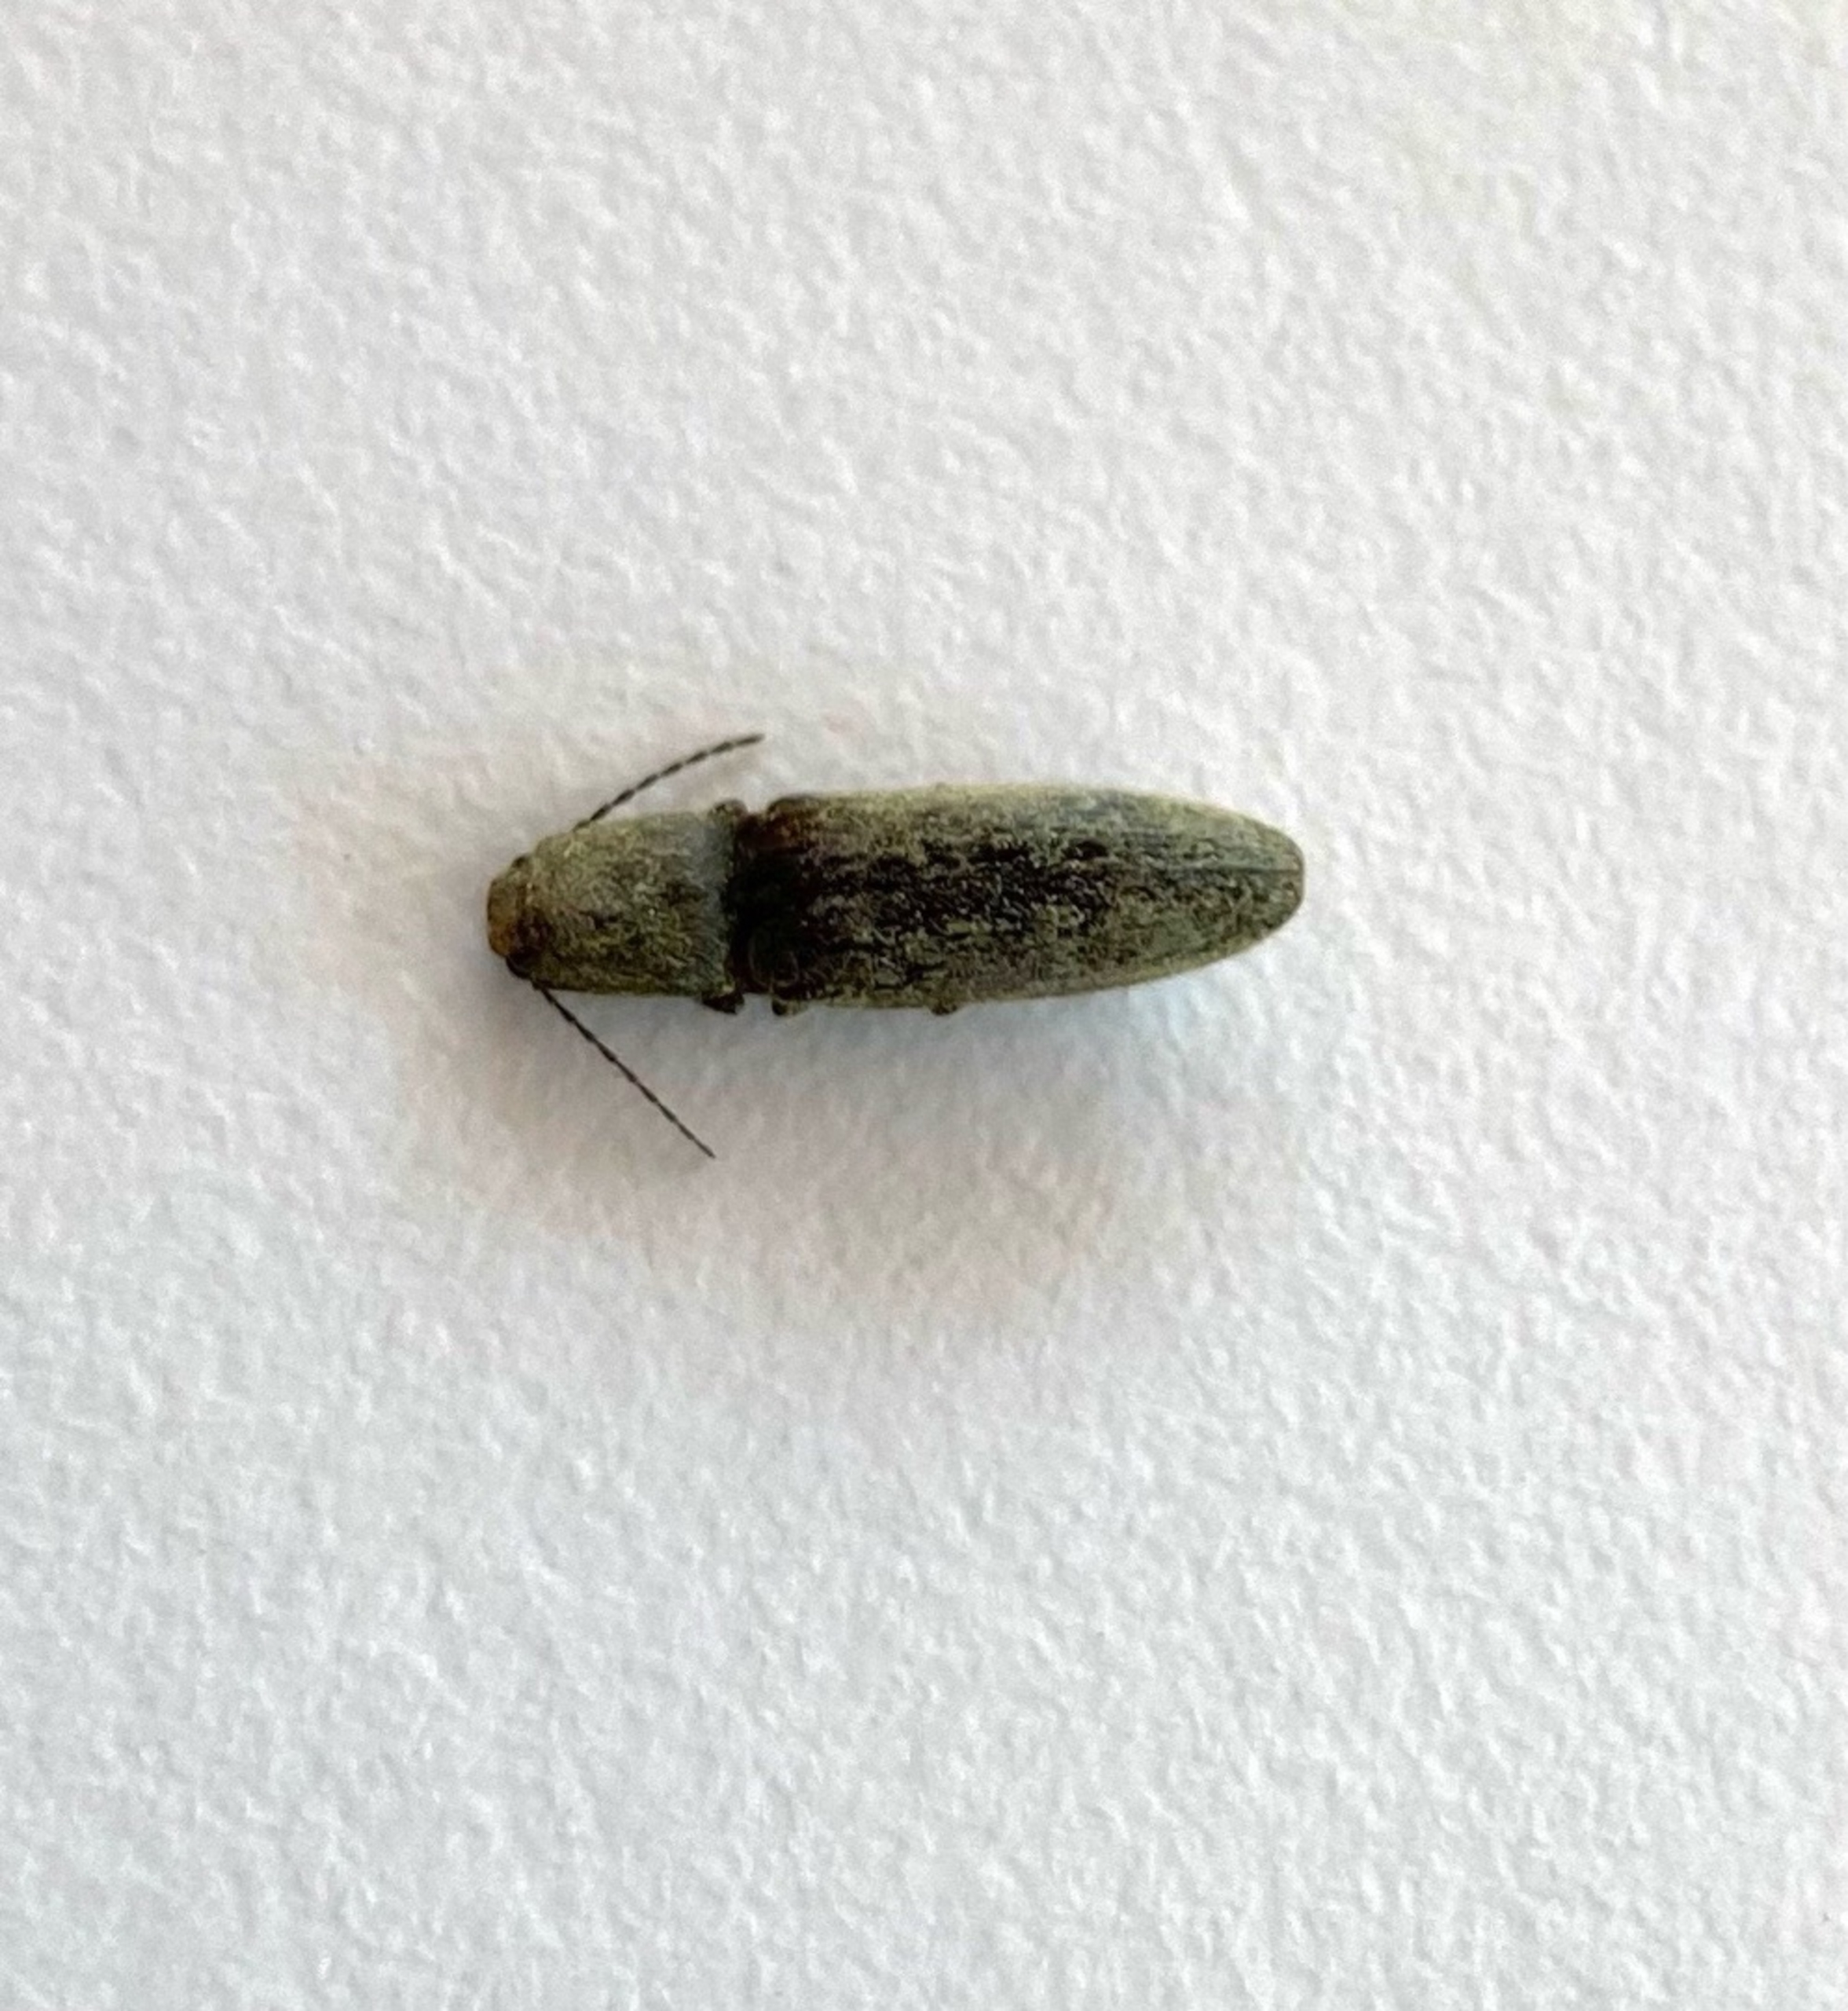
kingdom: Animalia
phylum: Arthropoda
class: Insecta
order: Coleoptera
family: Elateridae
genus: Athous
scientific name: Athous haemorrhoidalis
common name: Rødhalet busksmælder
